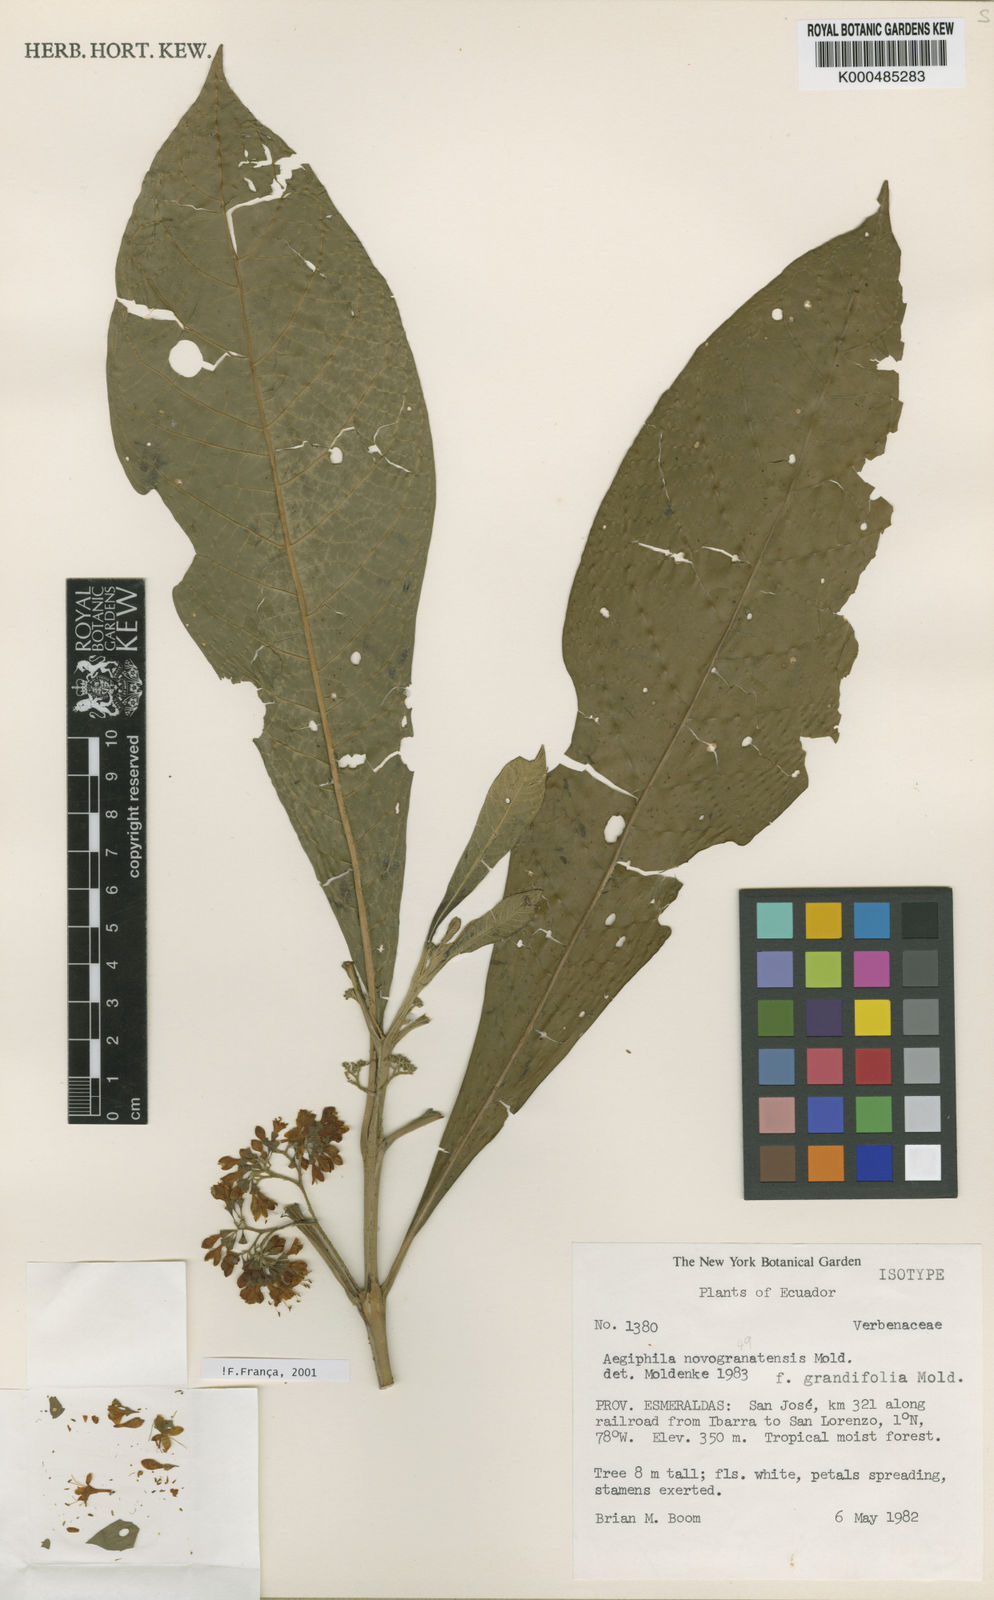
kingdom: Plantae
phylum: Tracheophyta
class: Magnoliopsida
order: Lamiales
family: Lamiaceae
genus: Aegiphila
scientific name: Aegiphila novogranatensis
